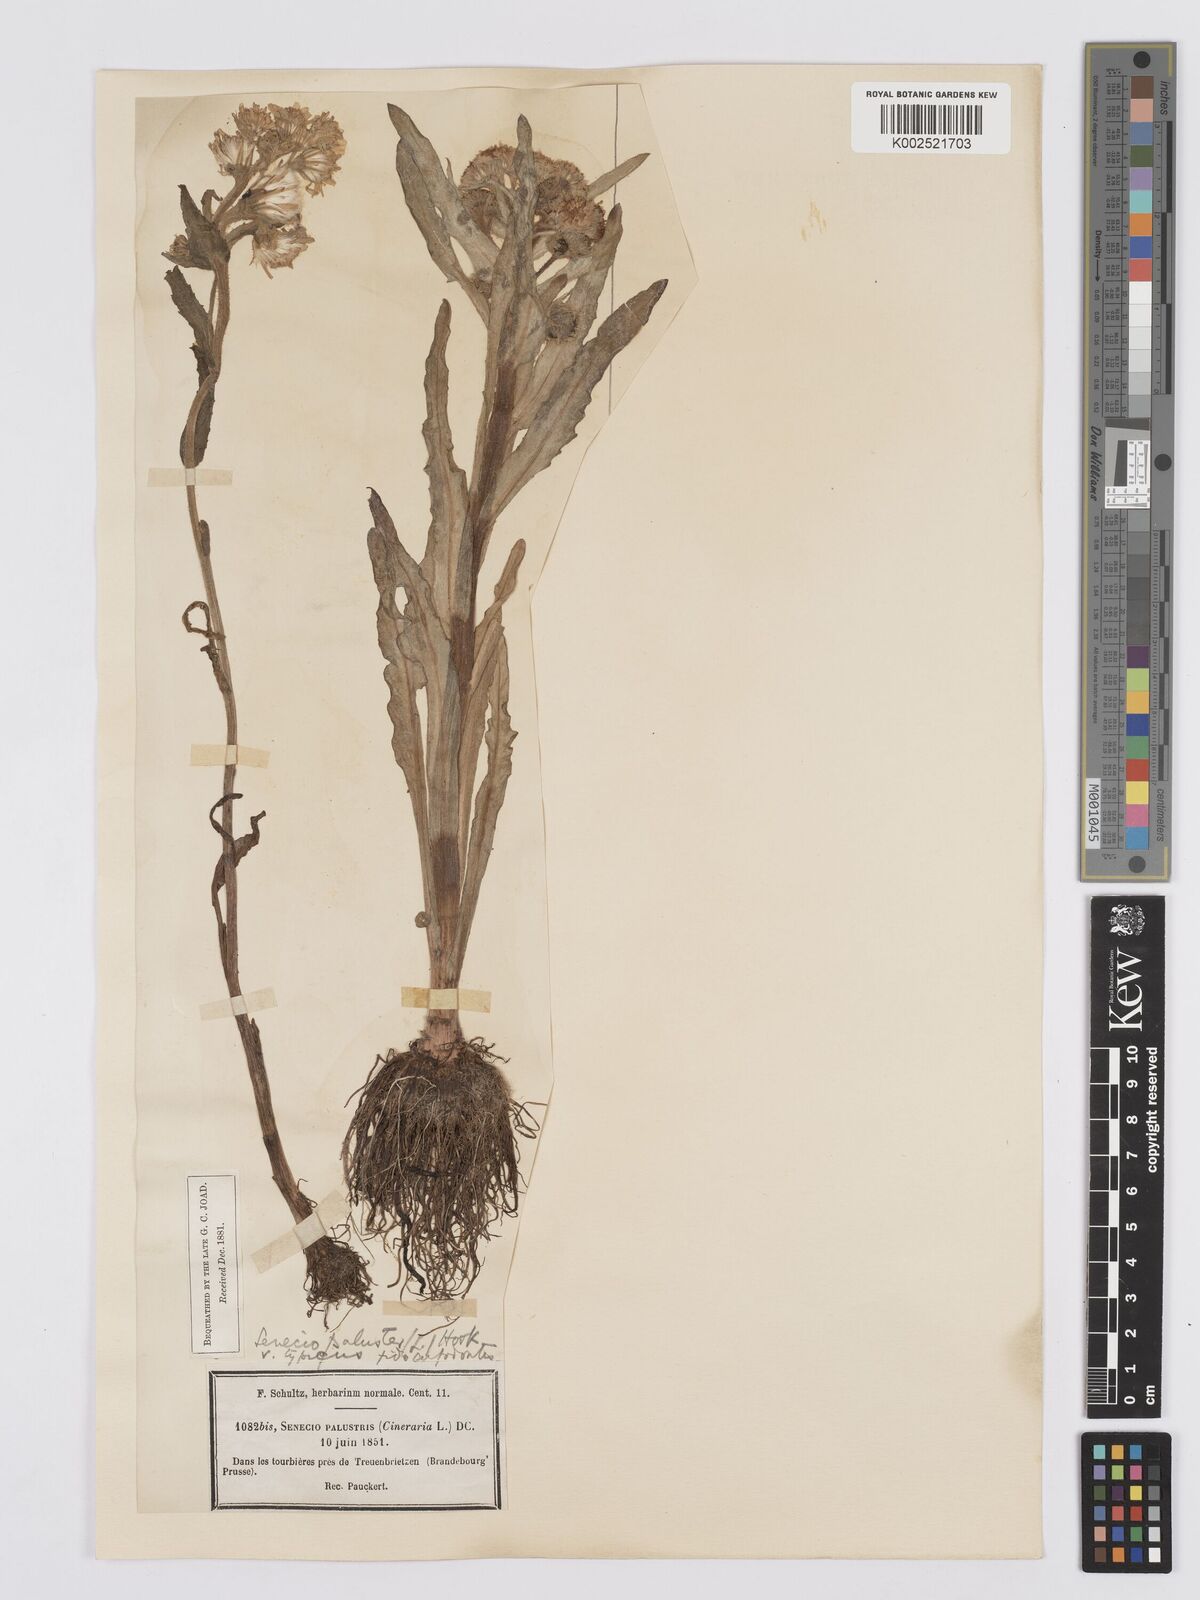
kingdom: Plantae
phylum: Tracheophyta
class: Magnoliopsida
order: Asterales
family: Asteraceae
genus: Tephroseris
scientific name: Tephroseris palustris
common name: Marsh fleawort
